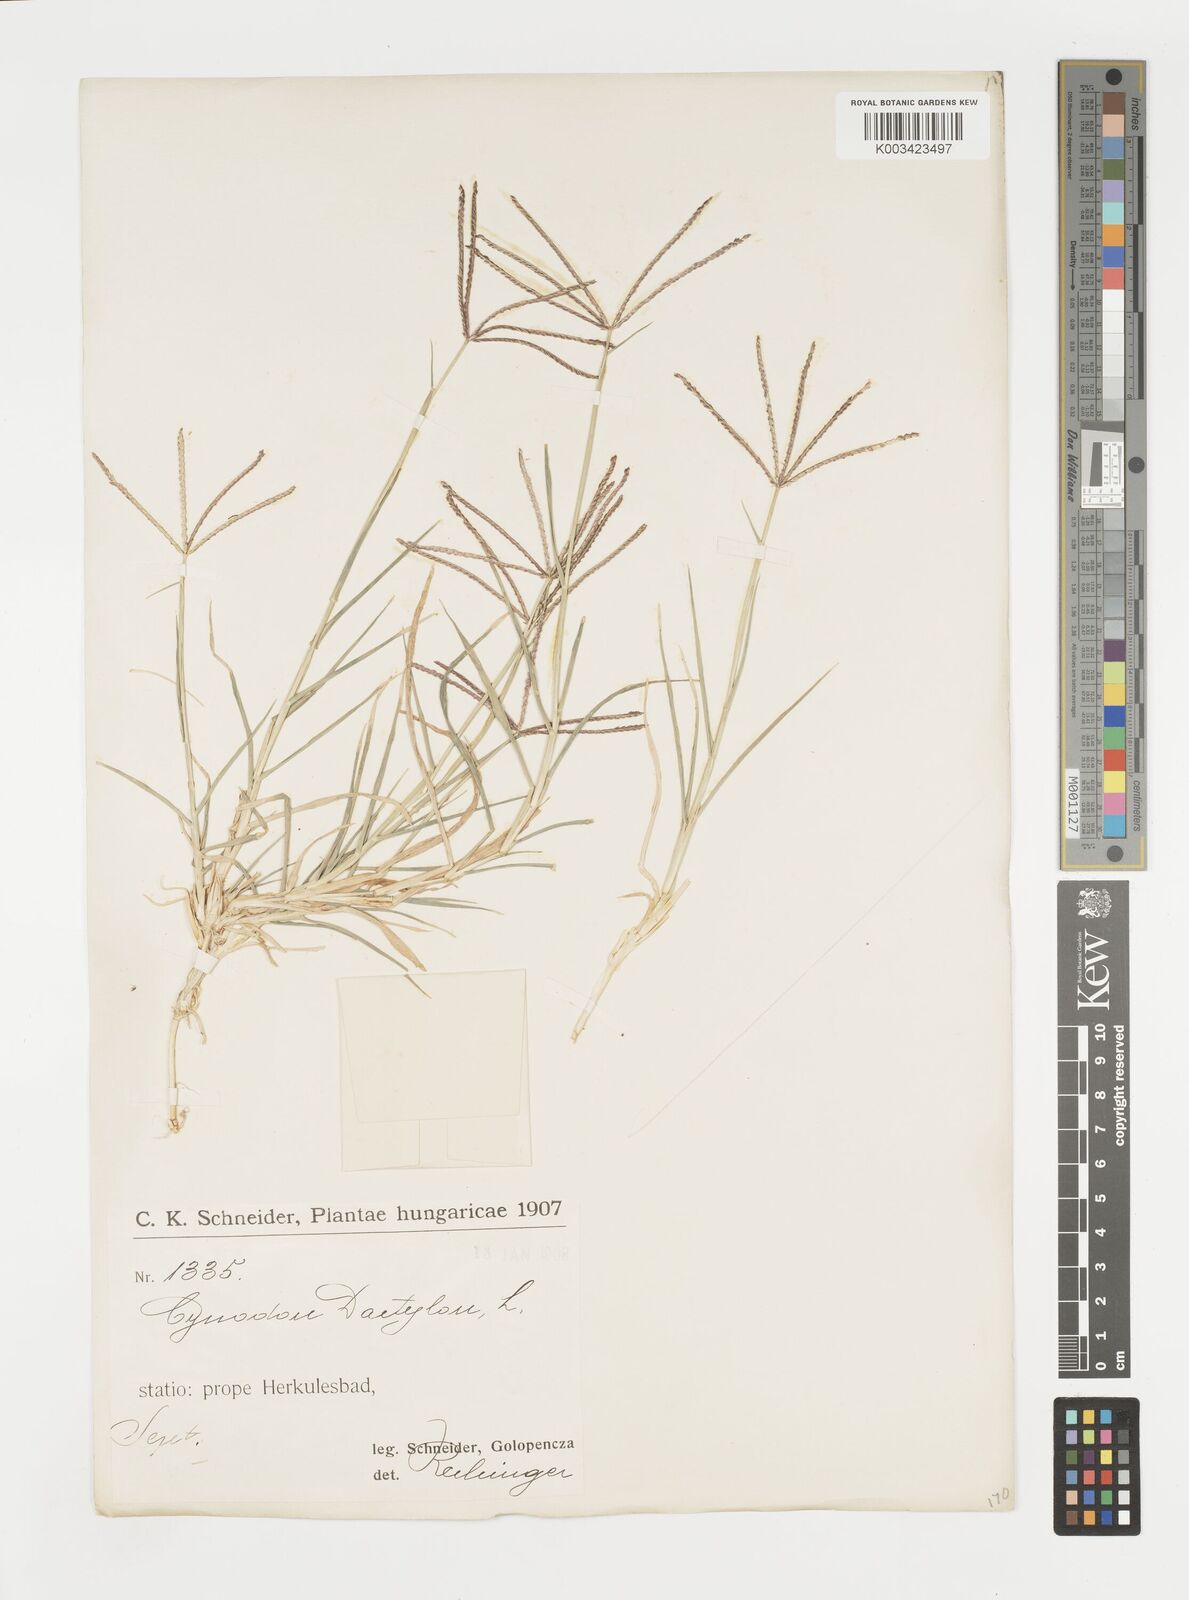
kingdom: Plantae
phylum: Tracheophyta
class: Liliopsida
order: Poales
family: Poaceae
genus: Cynodon
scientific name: Cynodon dactylon
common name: Bermuda grass
